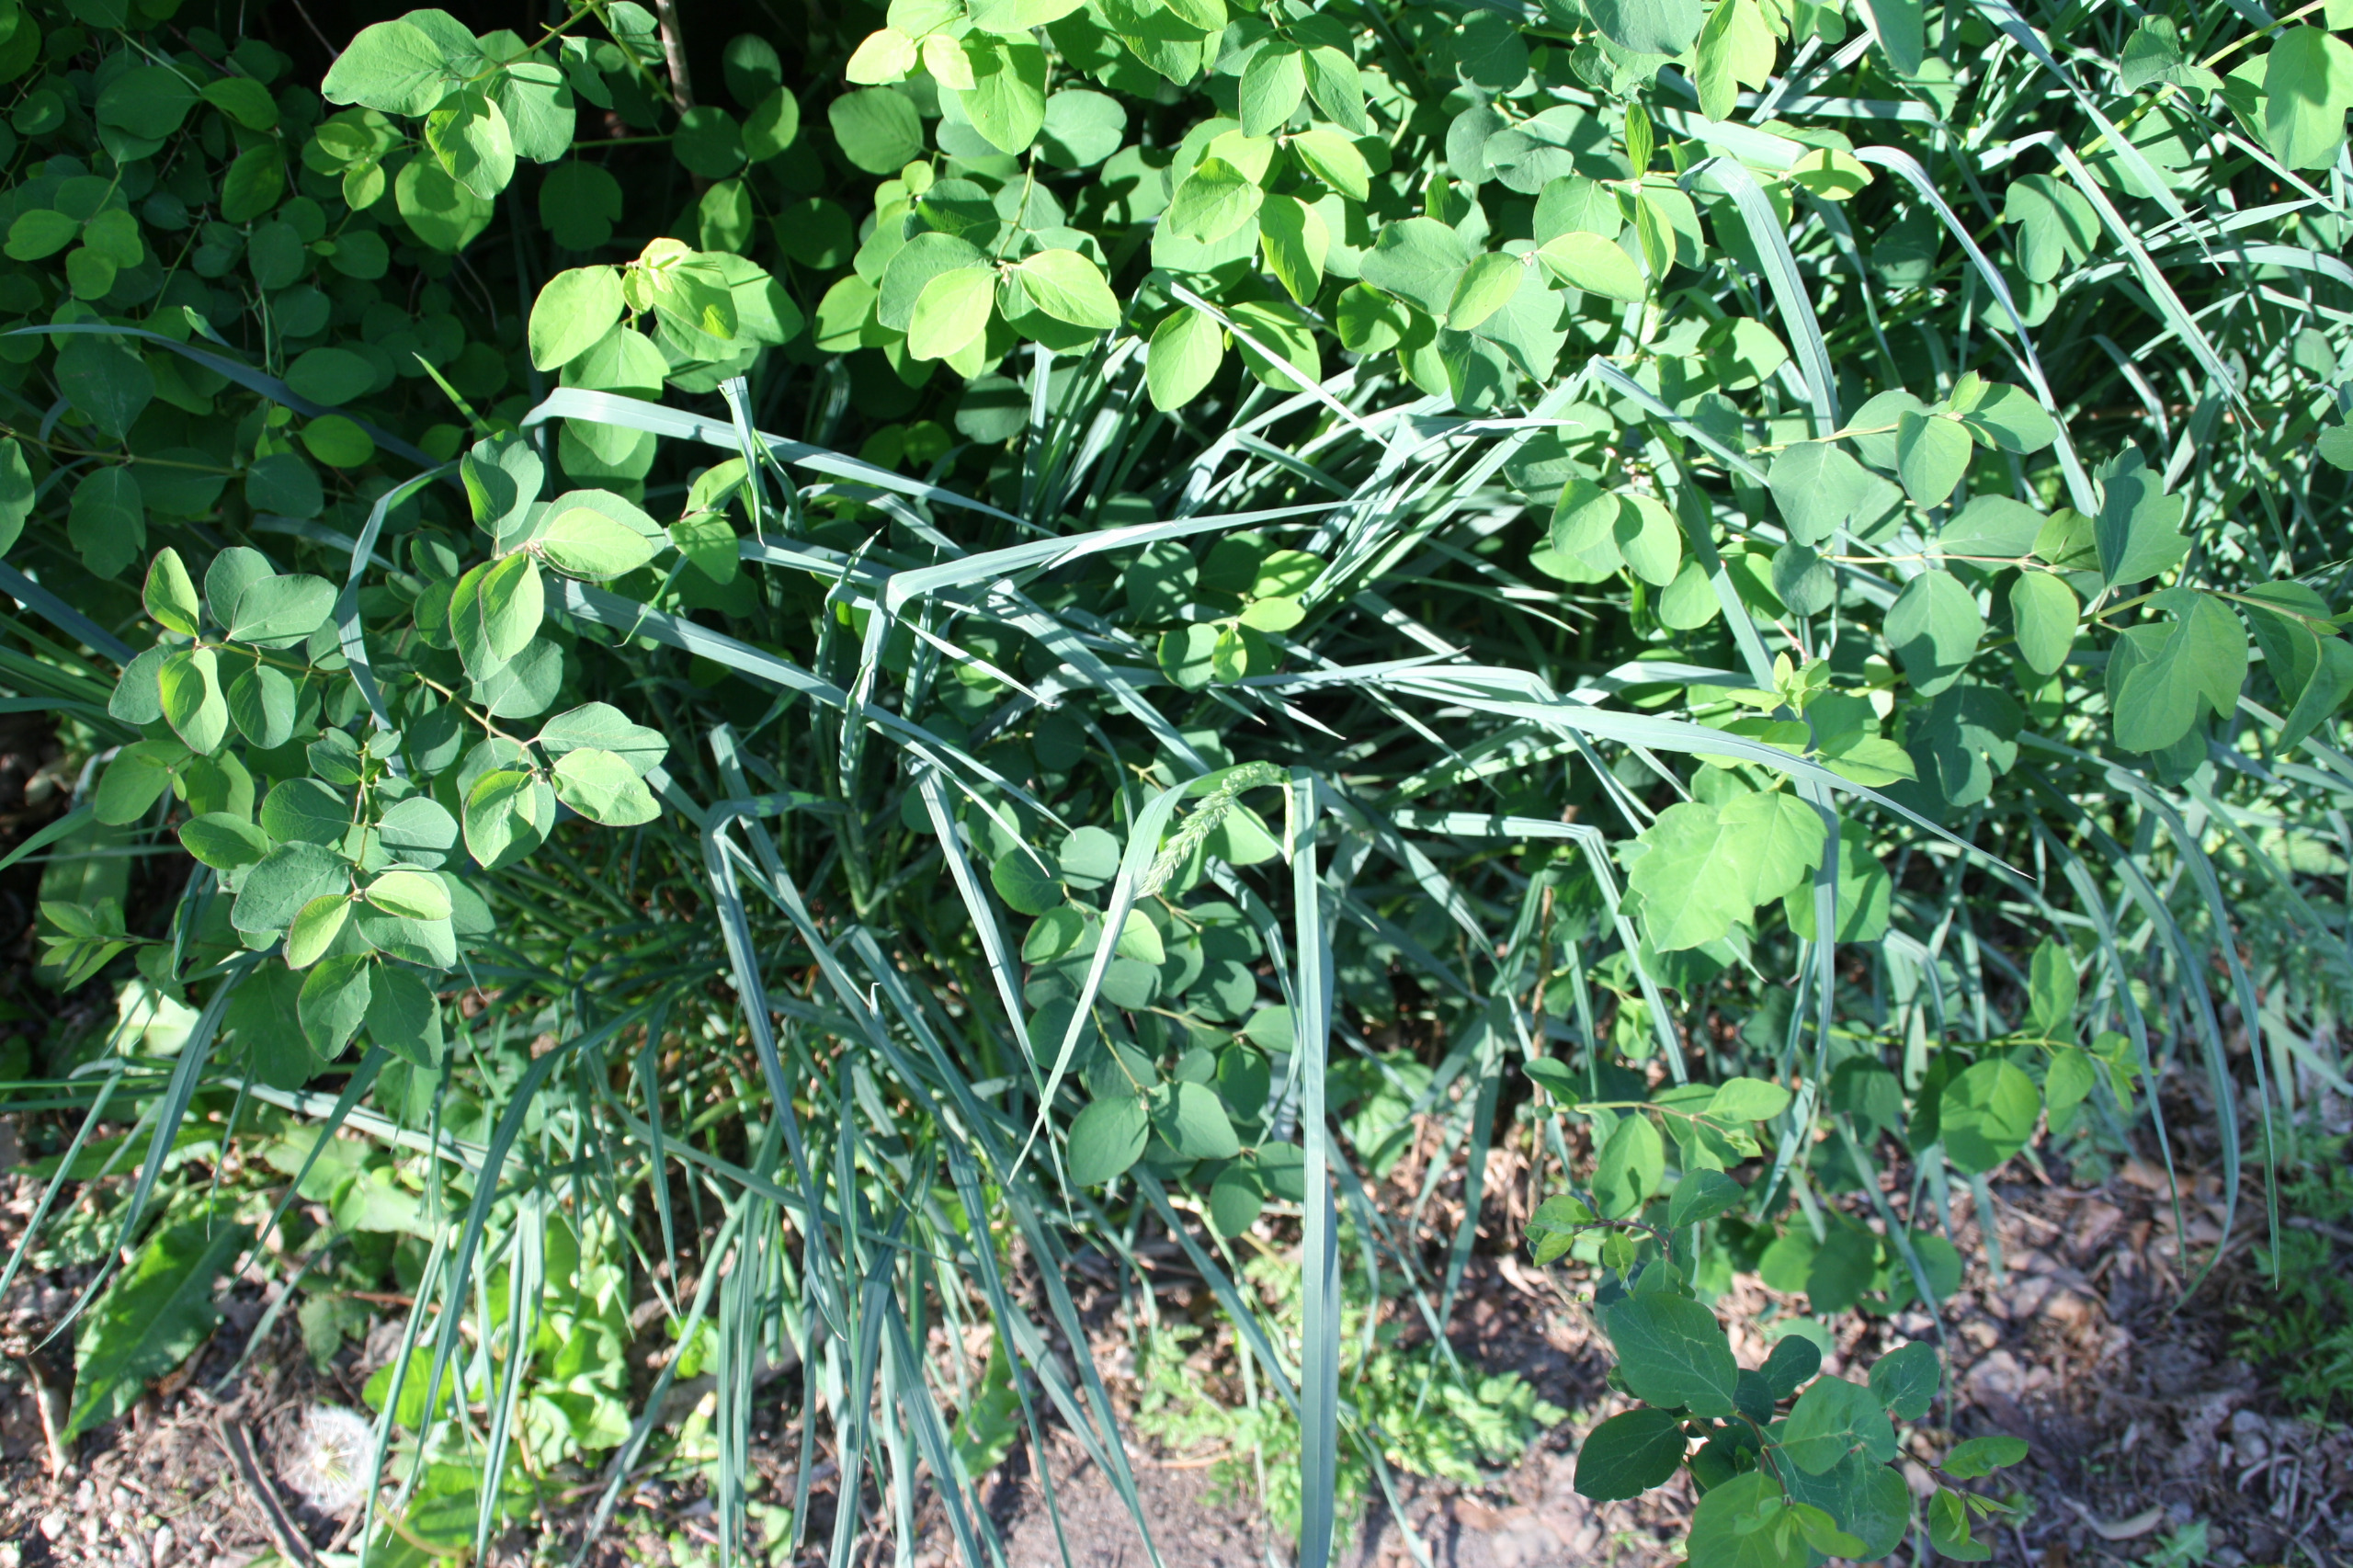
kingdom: Plantae
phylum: Tracheophyta
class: Liliopsida
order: Poales
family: Poaceae
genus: Dactylis
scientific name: Dactylis glomerata
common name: Almindelig hundegræs
